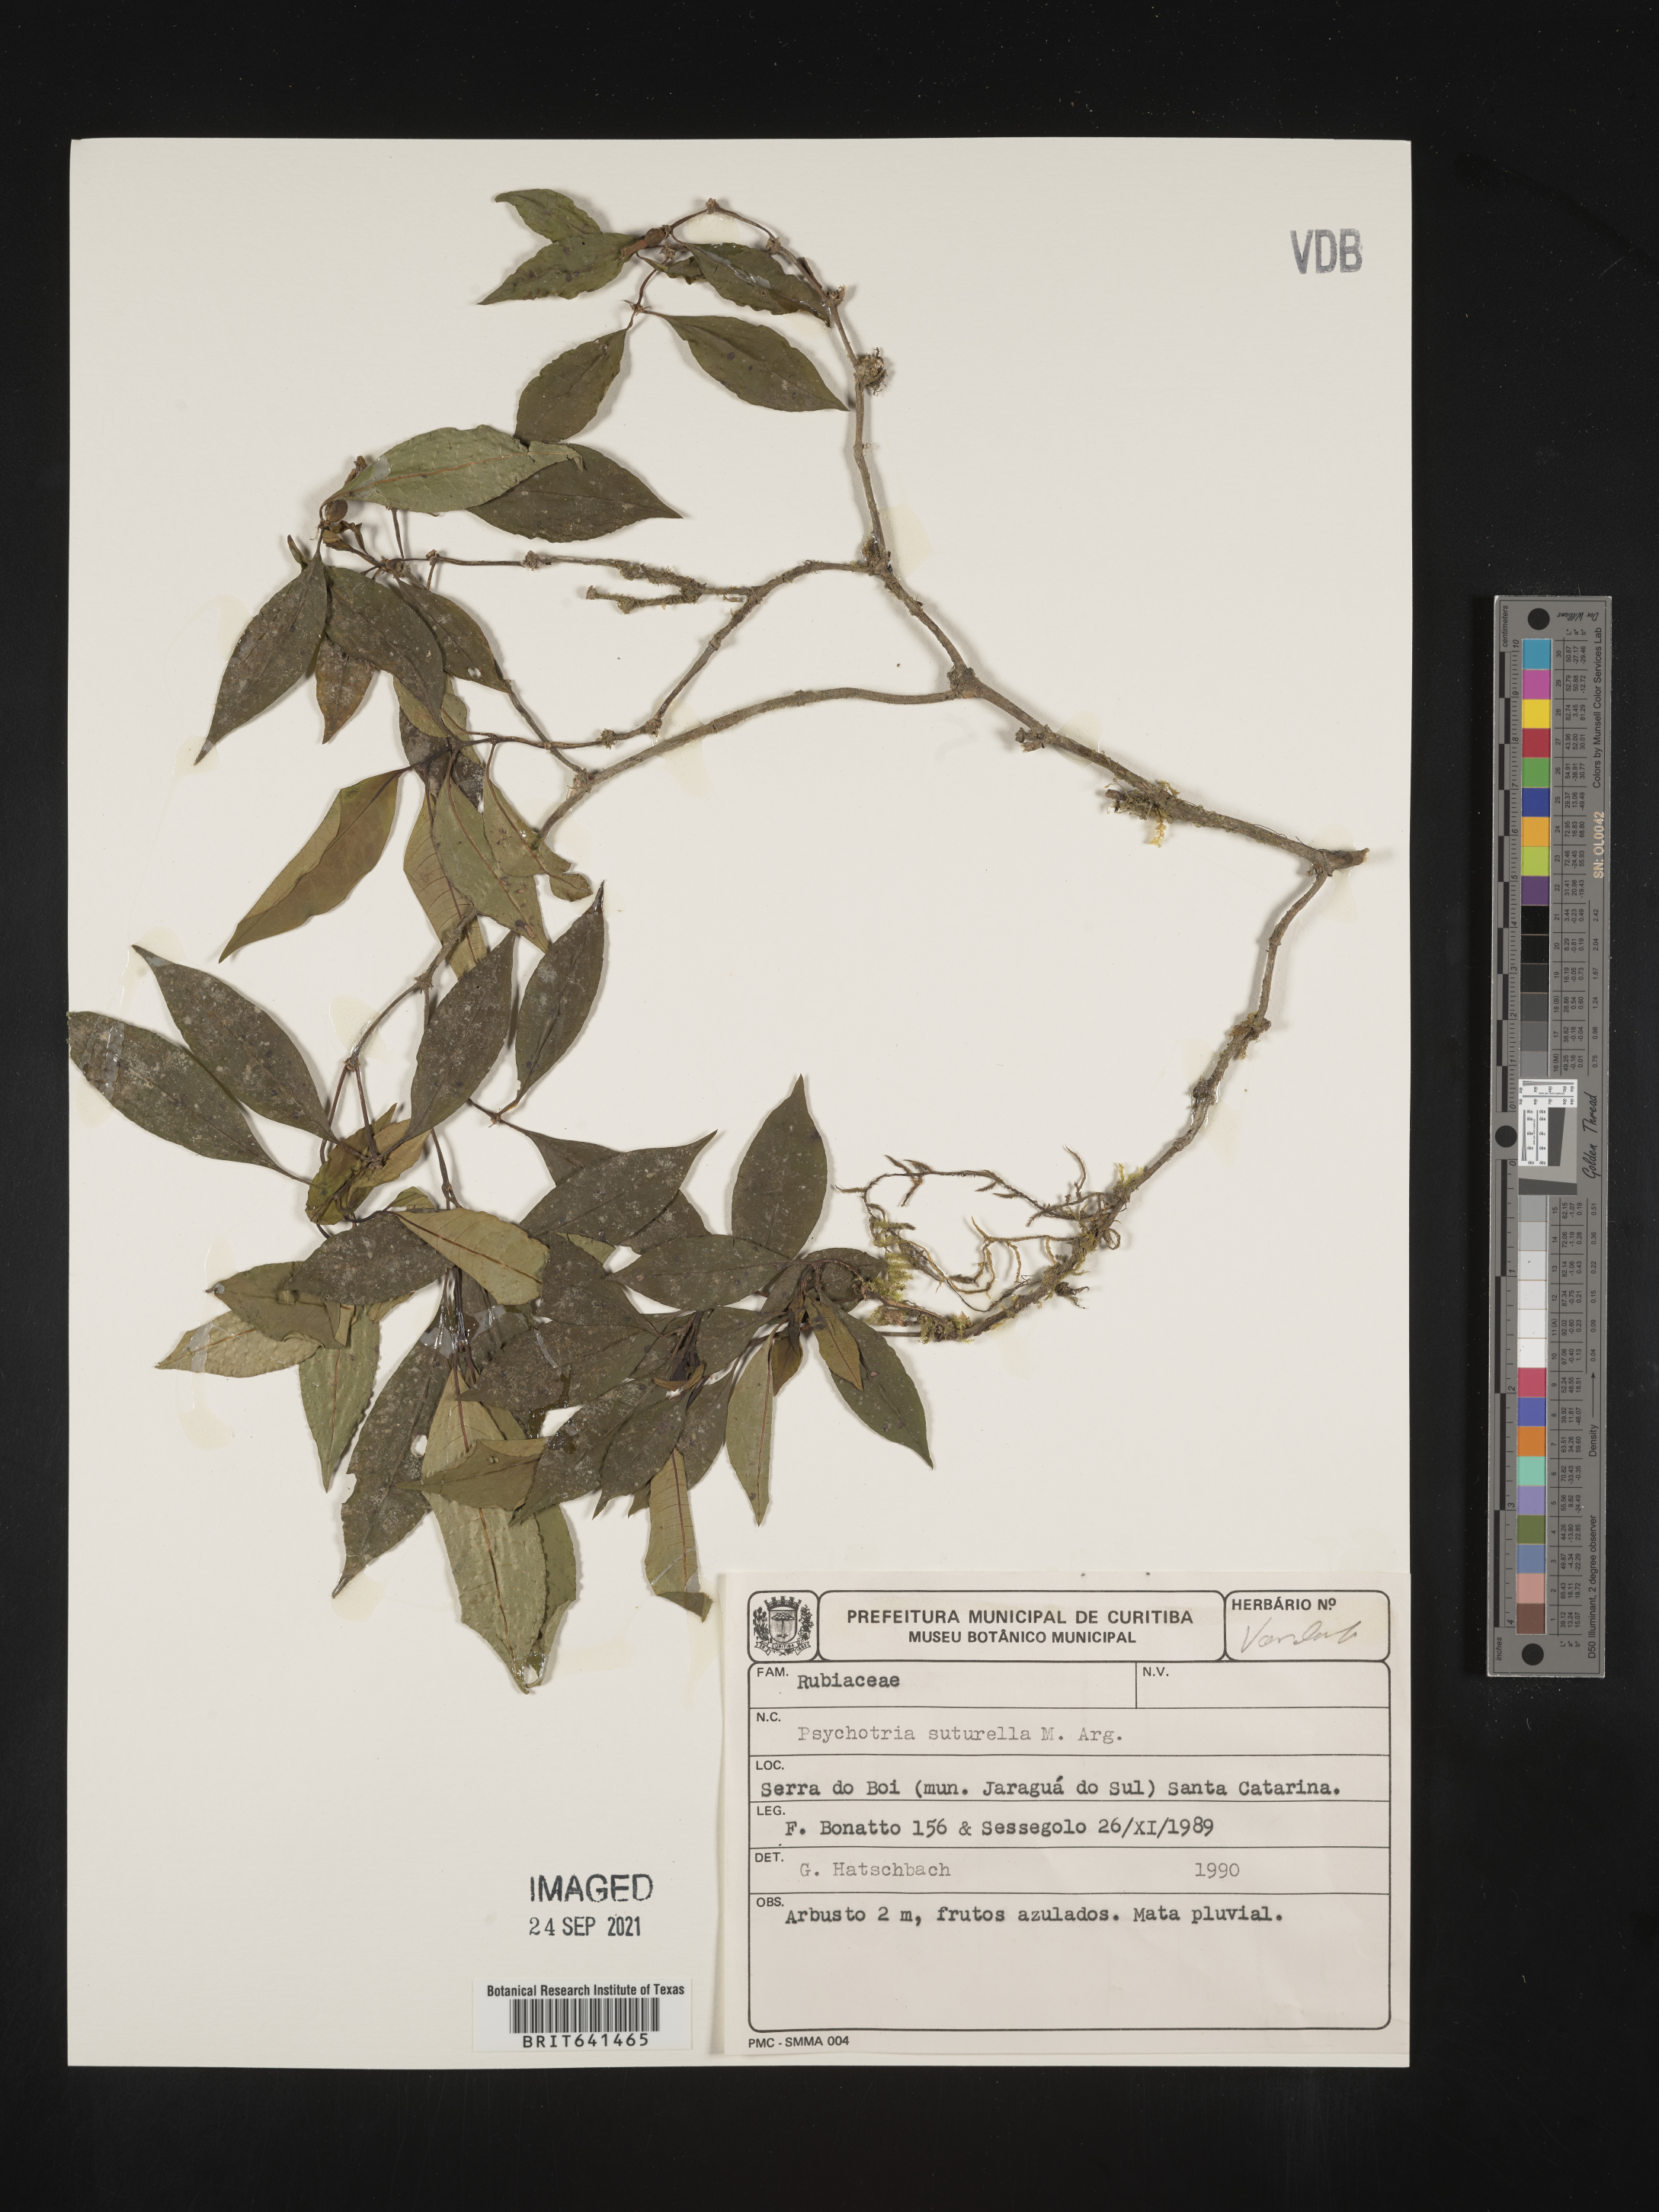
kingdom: Plantae
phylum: Tracheophyta
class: Magnoliopsida
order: Gentianales
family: Rubiaceae
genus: Psychotria
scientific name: Psychotria
